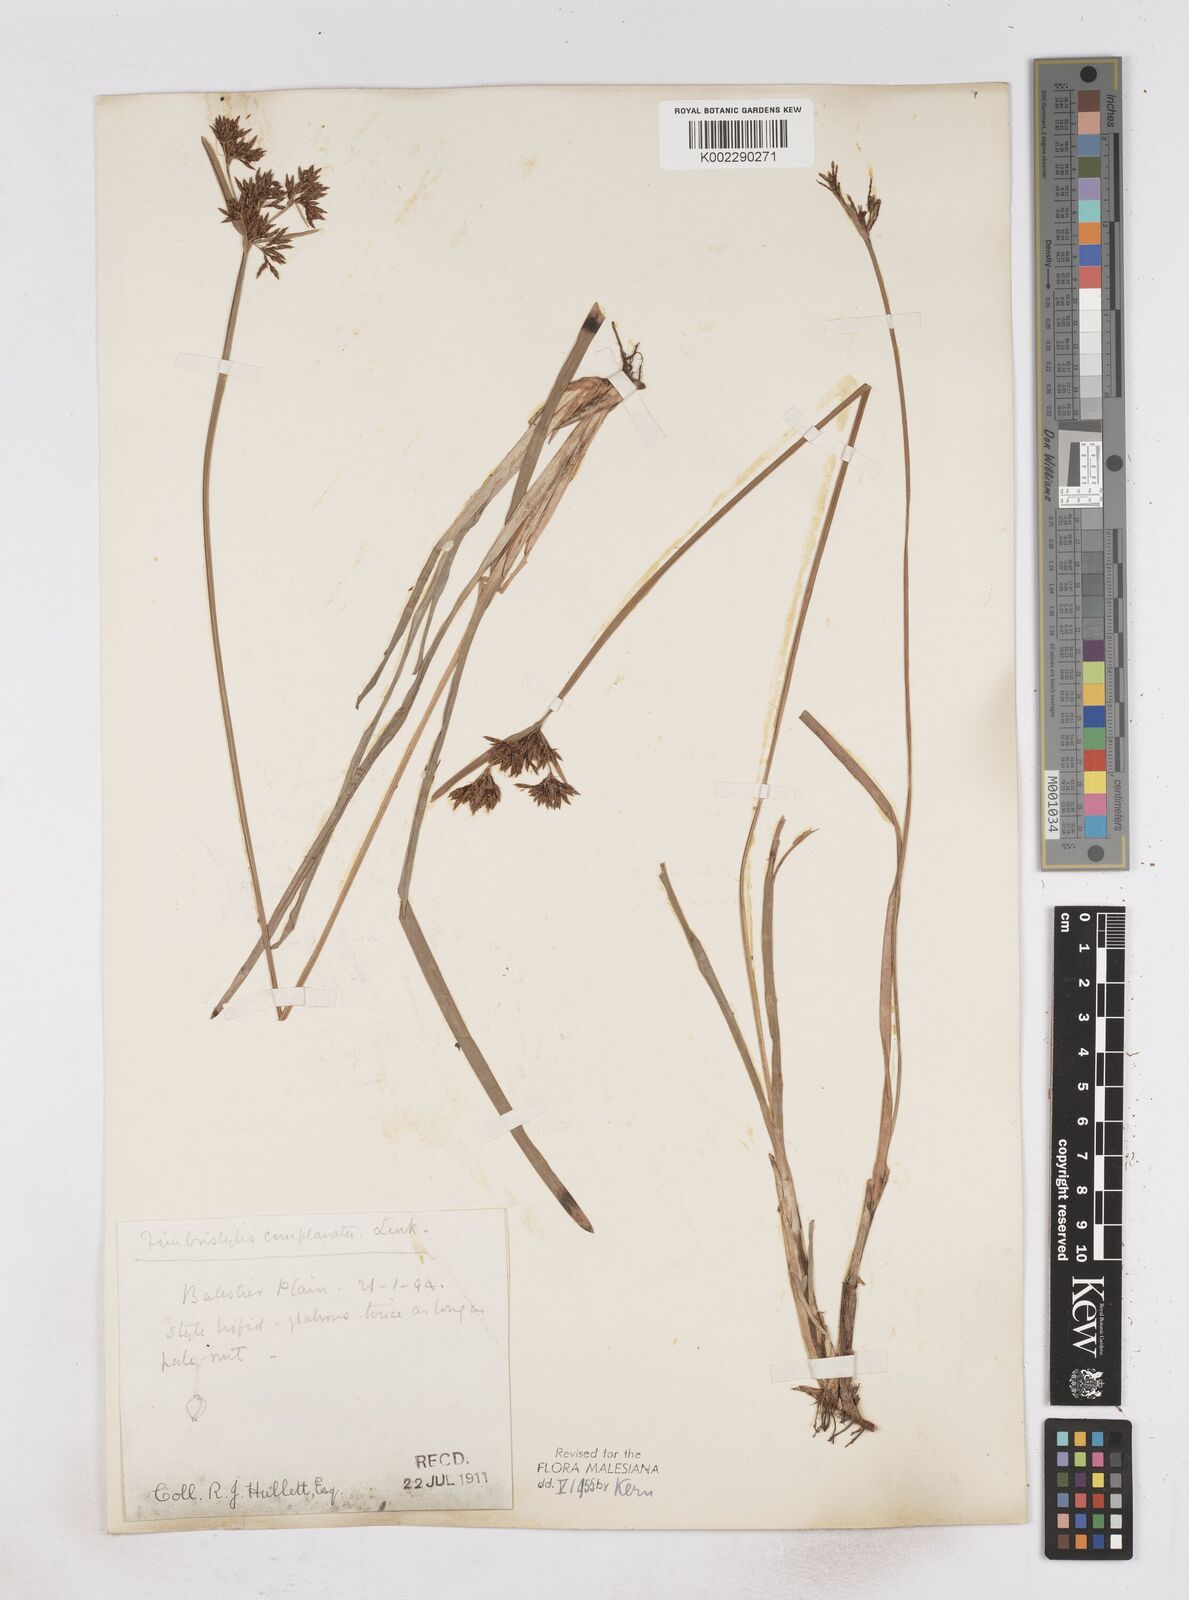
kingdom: Plantae
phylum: Tracheophyta
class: Liliopsida
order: Poales
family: Cyperaceae
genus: Fimbristylis
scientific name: Fimbristylis complanata
